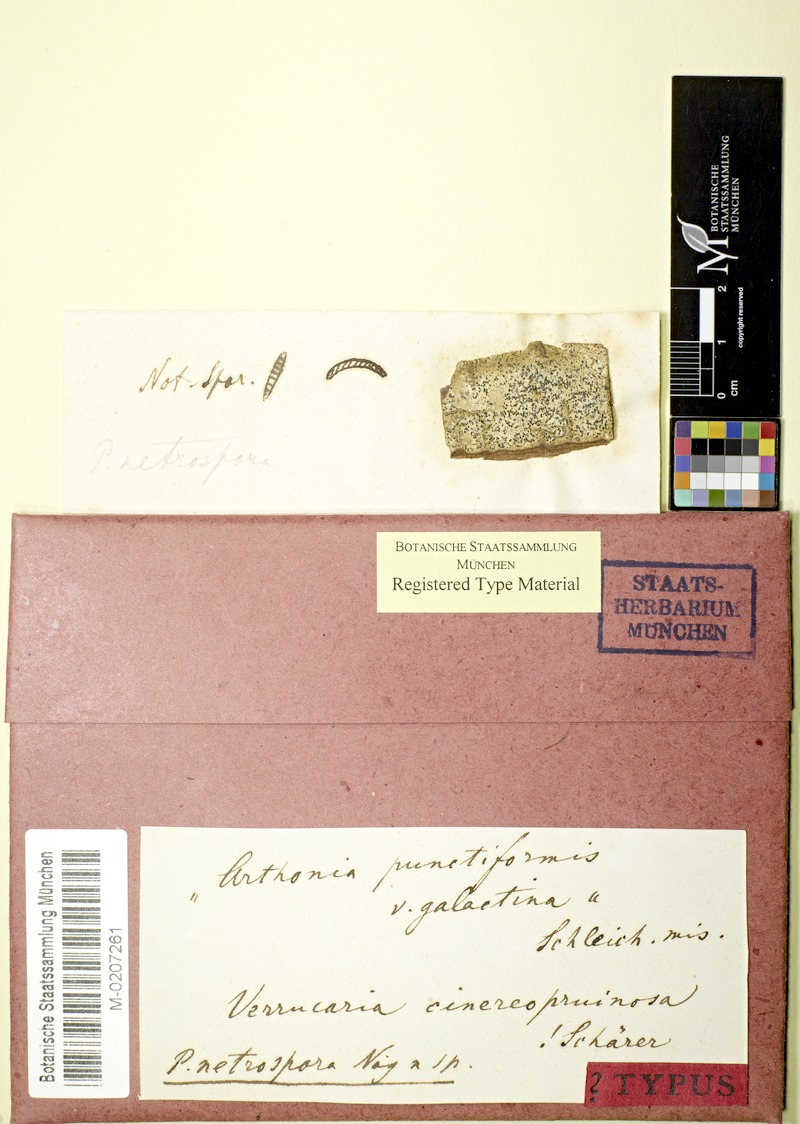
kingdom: Fungi
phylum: Ascomycota
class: Dothideomycetes
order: Strigulales
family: Strigulaceae
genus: Swinscowia
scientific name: Swinscowia glabra
